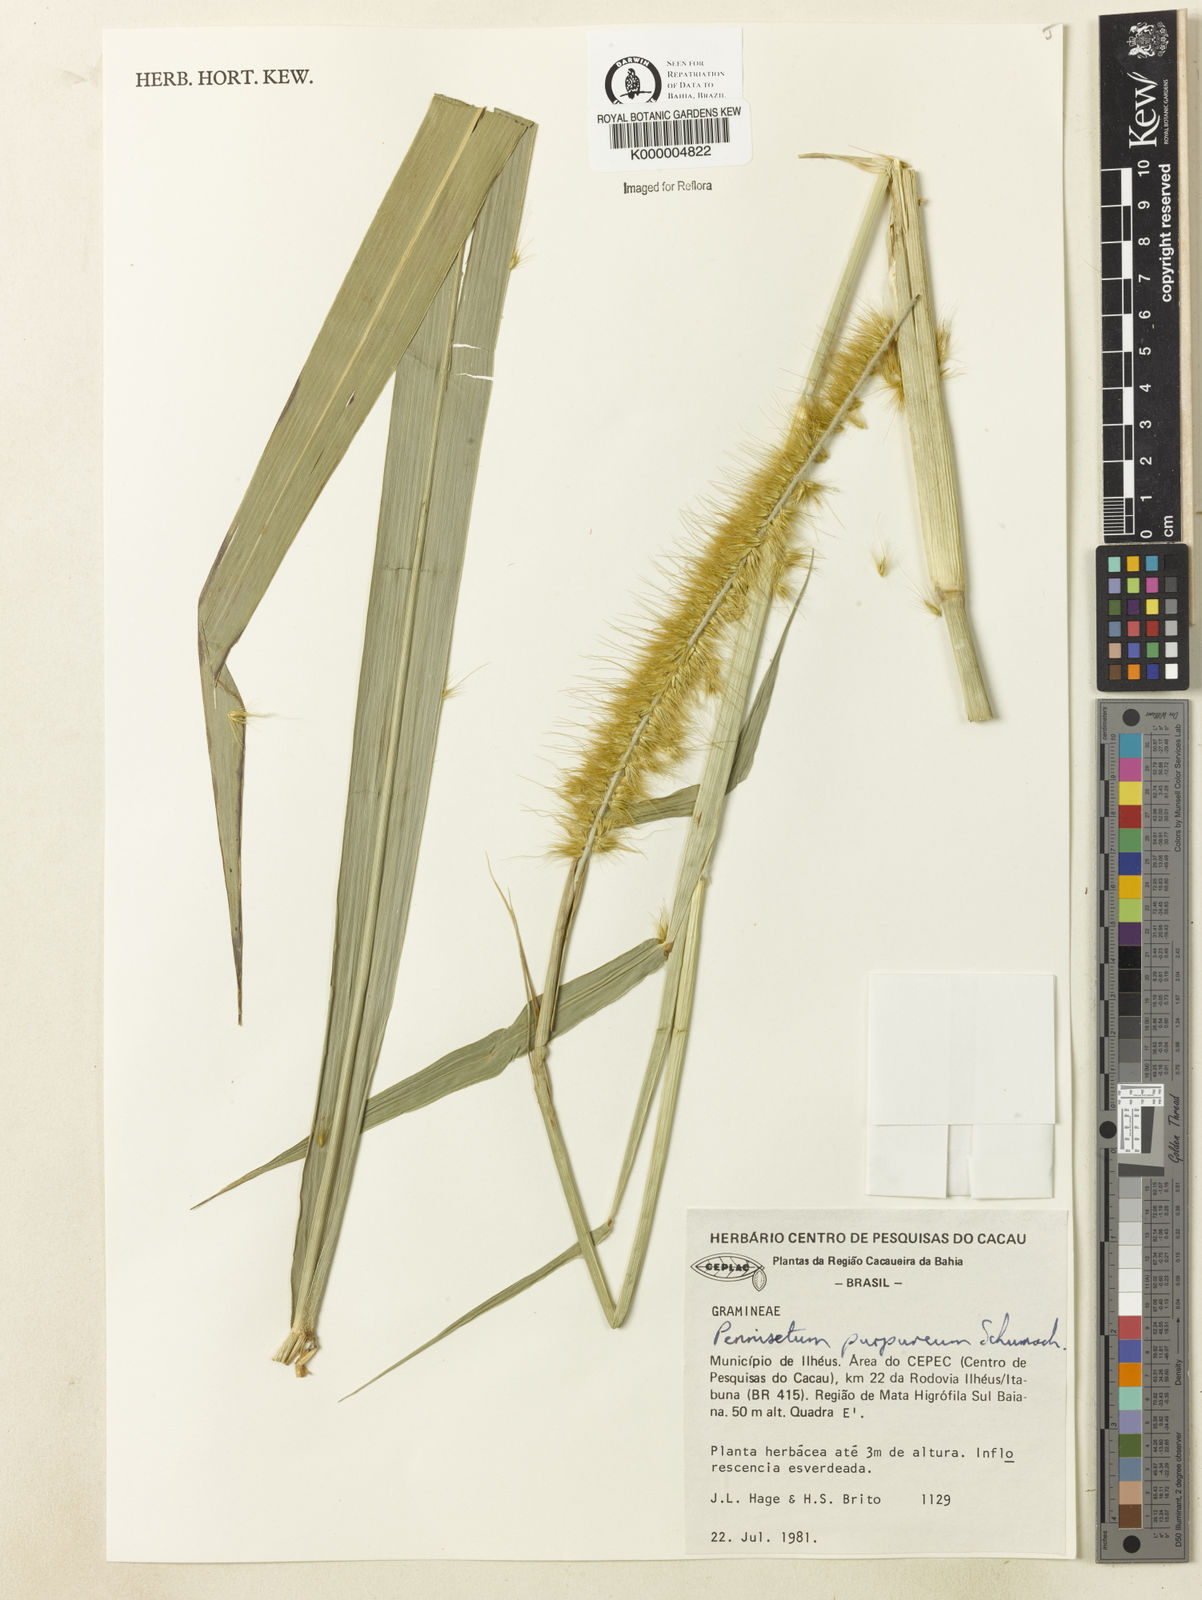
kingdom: Plantae
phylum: Tracheophyta
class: Liliopsida
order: Poales
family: Poaceae
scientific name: Poaceae
